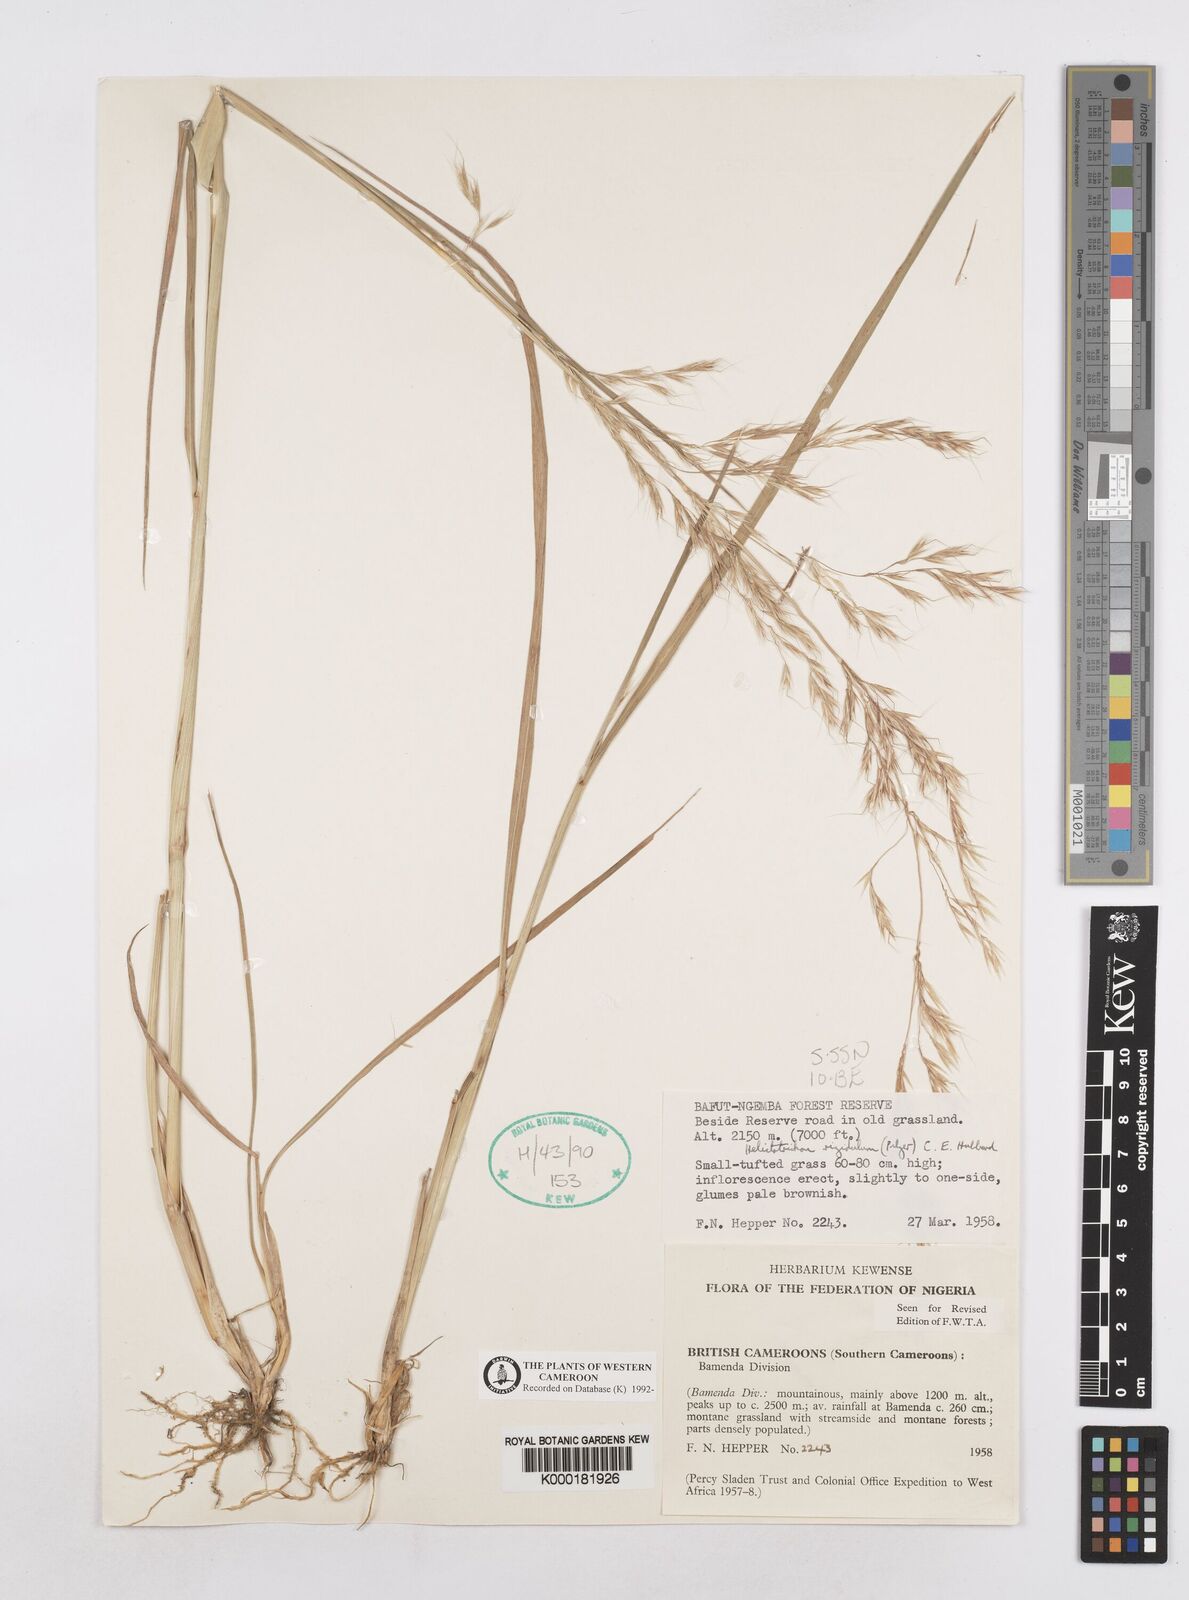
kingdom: Plantae
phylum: Tracheophyta
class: Liliopsida
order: Poales
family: Poaceae
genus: Trisetopsis
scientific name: Trisetopsis elongata
